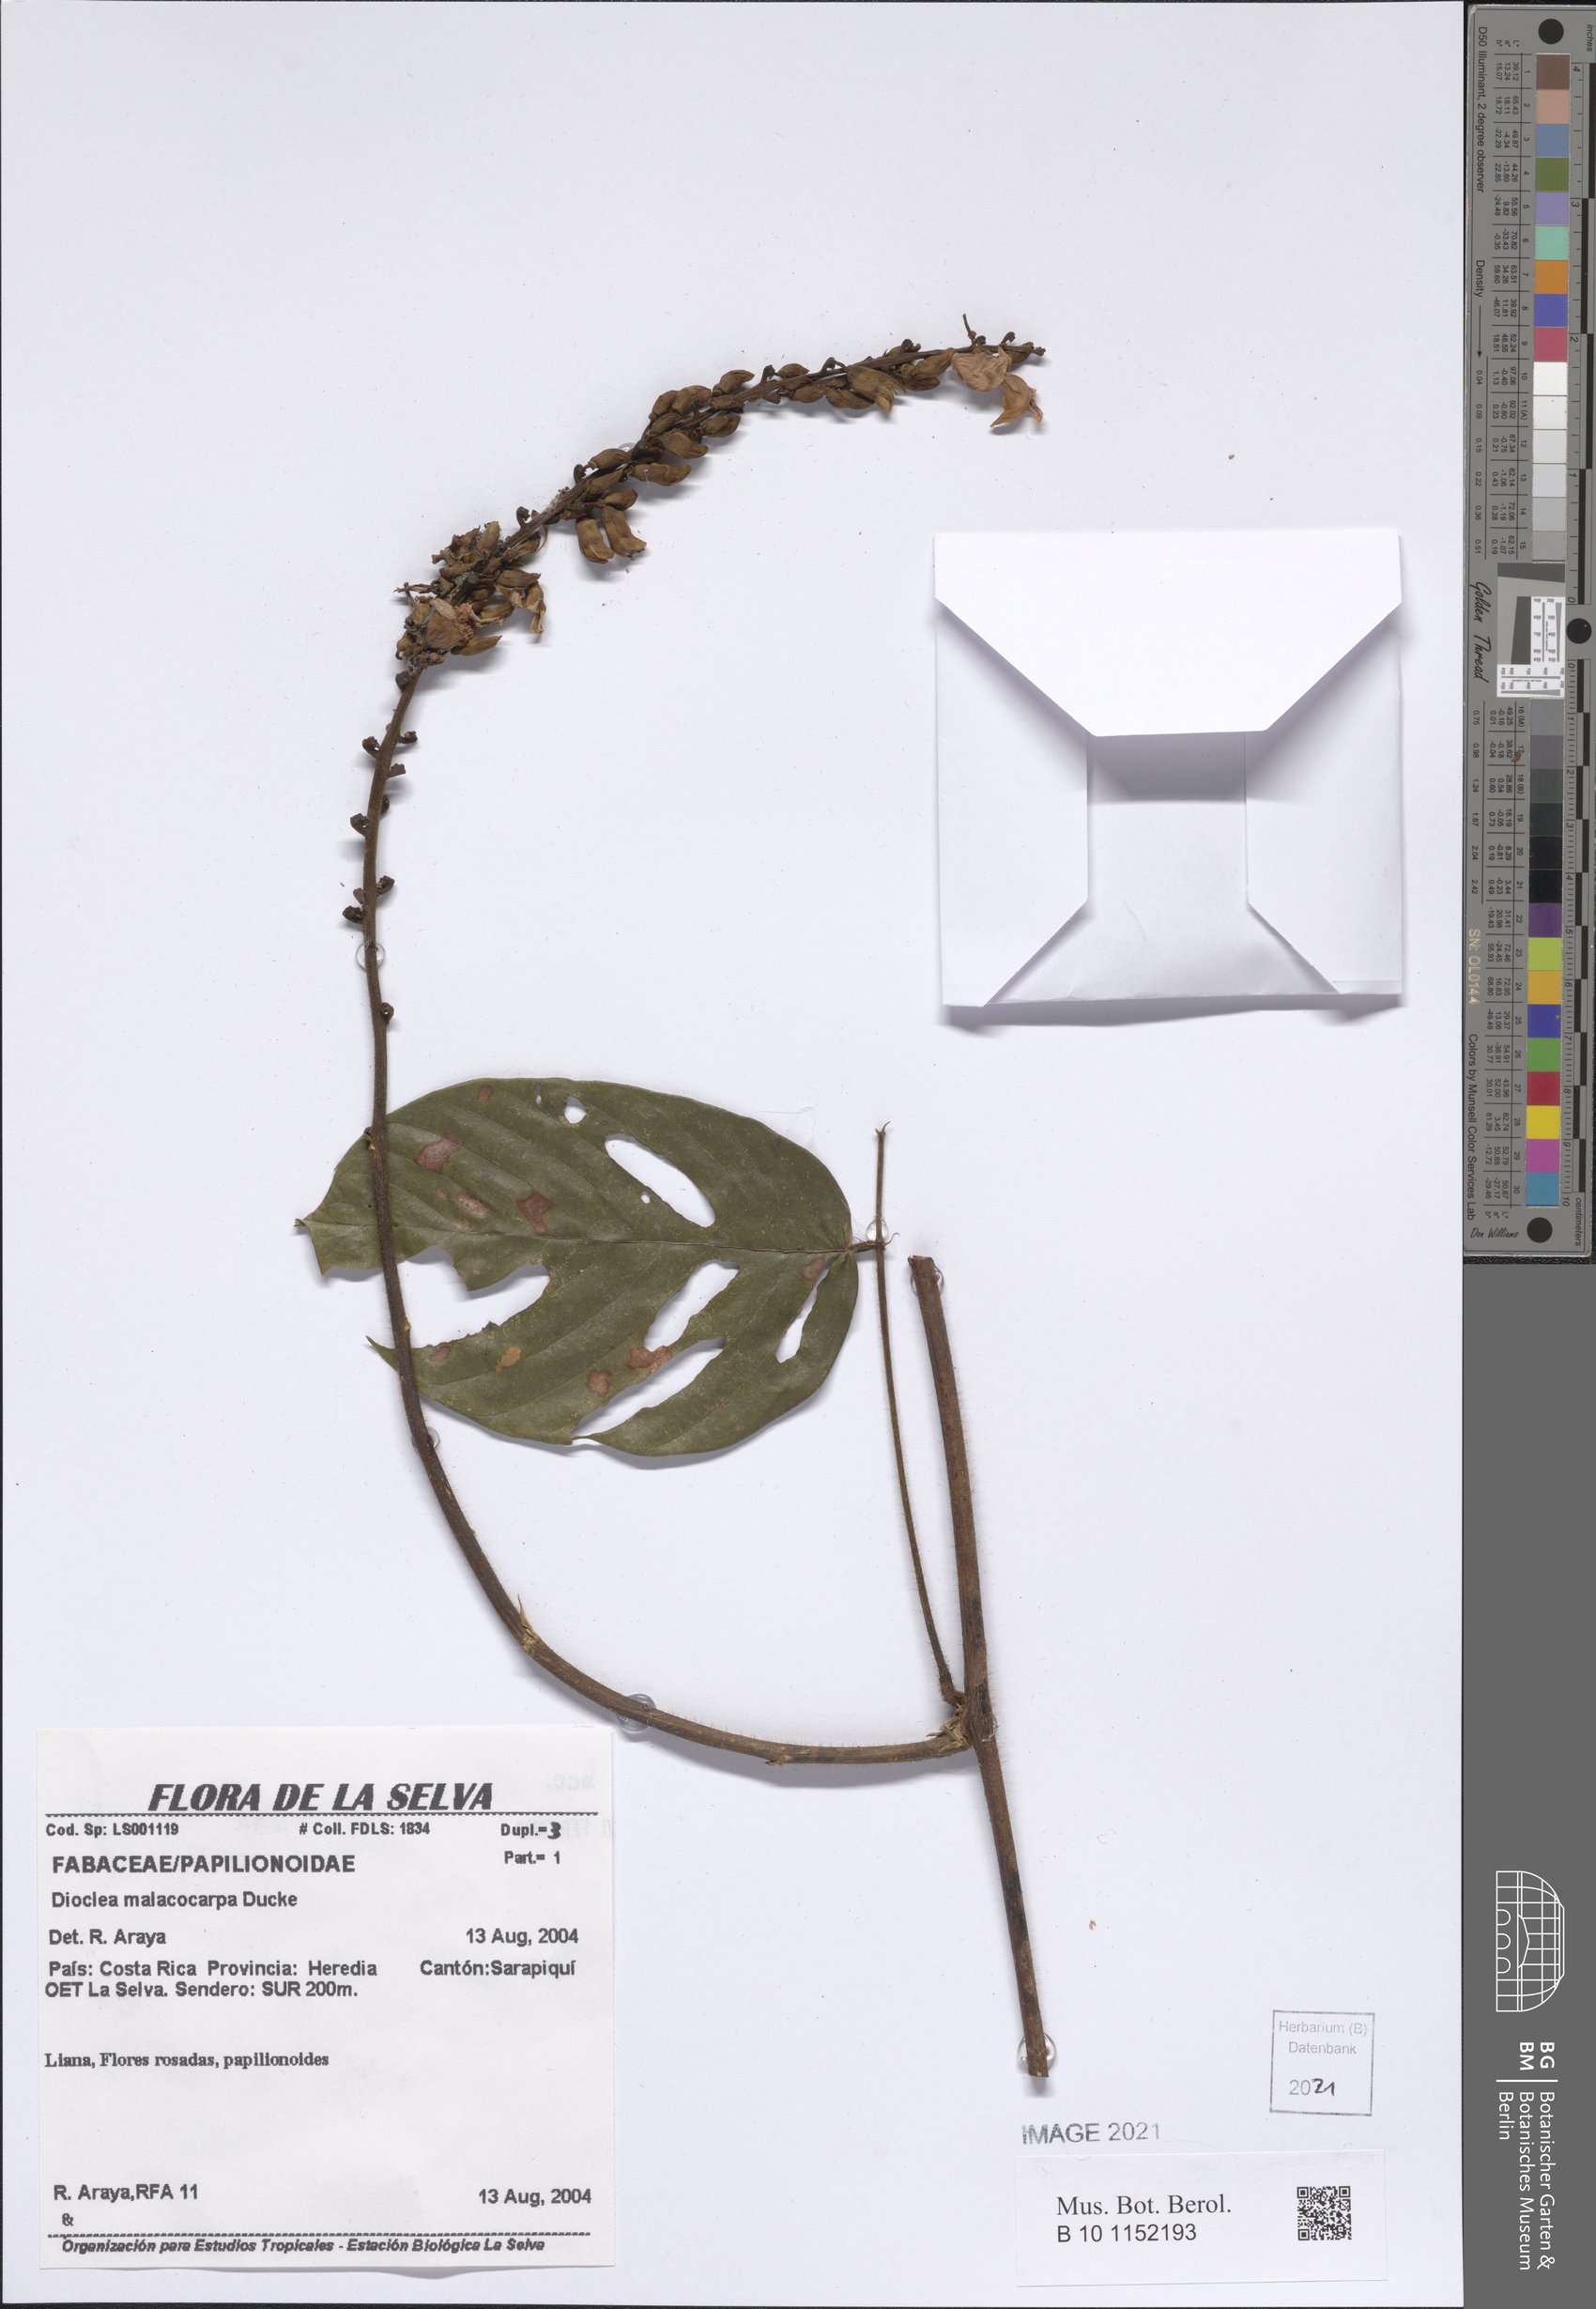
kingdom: Plantae
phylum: Tracheophyta
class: Magnoliopsida
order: Fabales
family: Fabaceae
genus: Macropsychanthus
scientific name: Macropsychanthus malacocarpus
